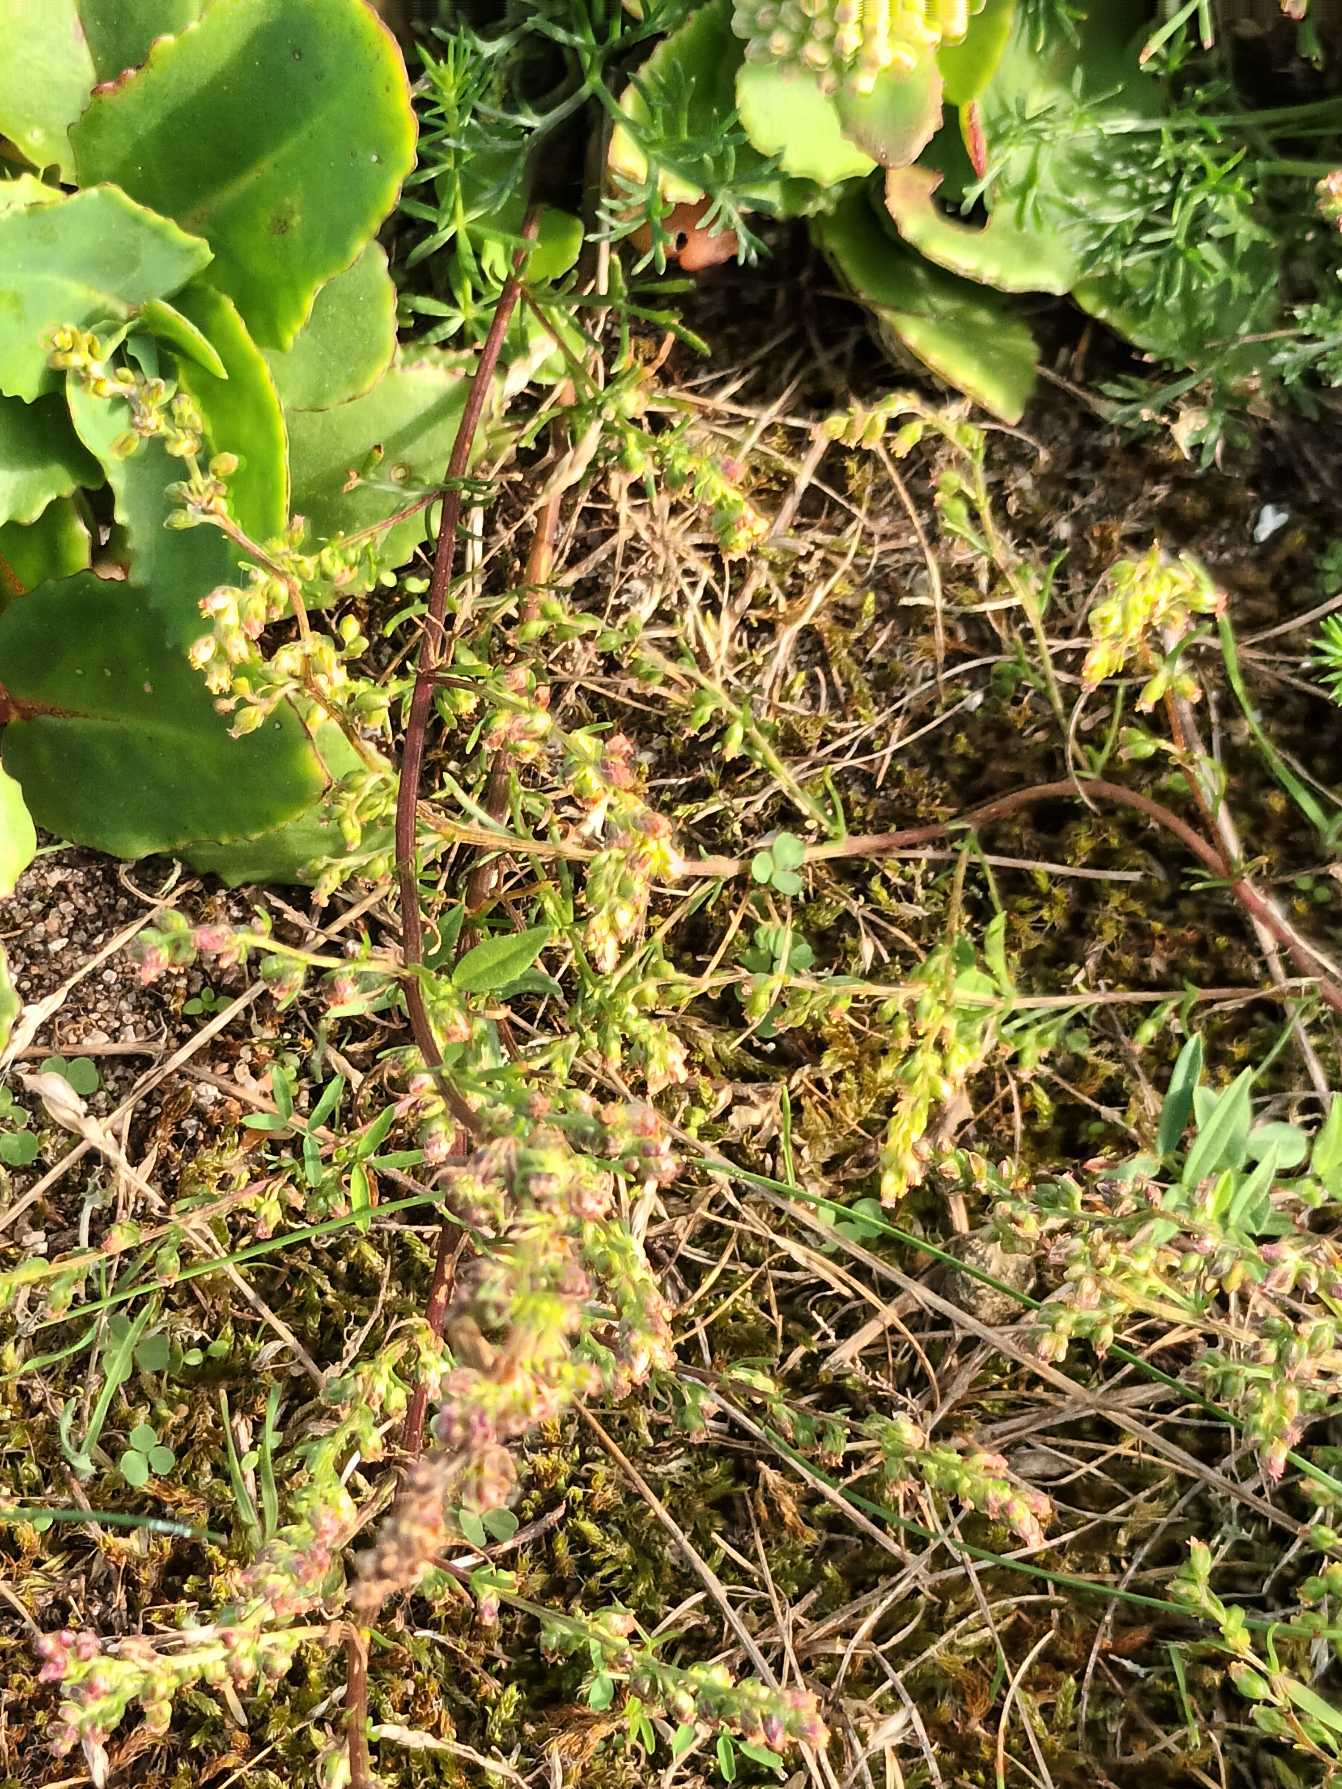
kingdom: Plantae
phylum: Tracheophyta
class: Magnoliopsida
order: Asterales
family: Asteraceae
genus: Artemisia
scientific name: Artemisia campestris
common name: Mark-bynke
